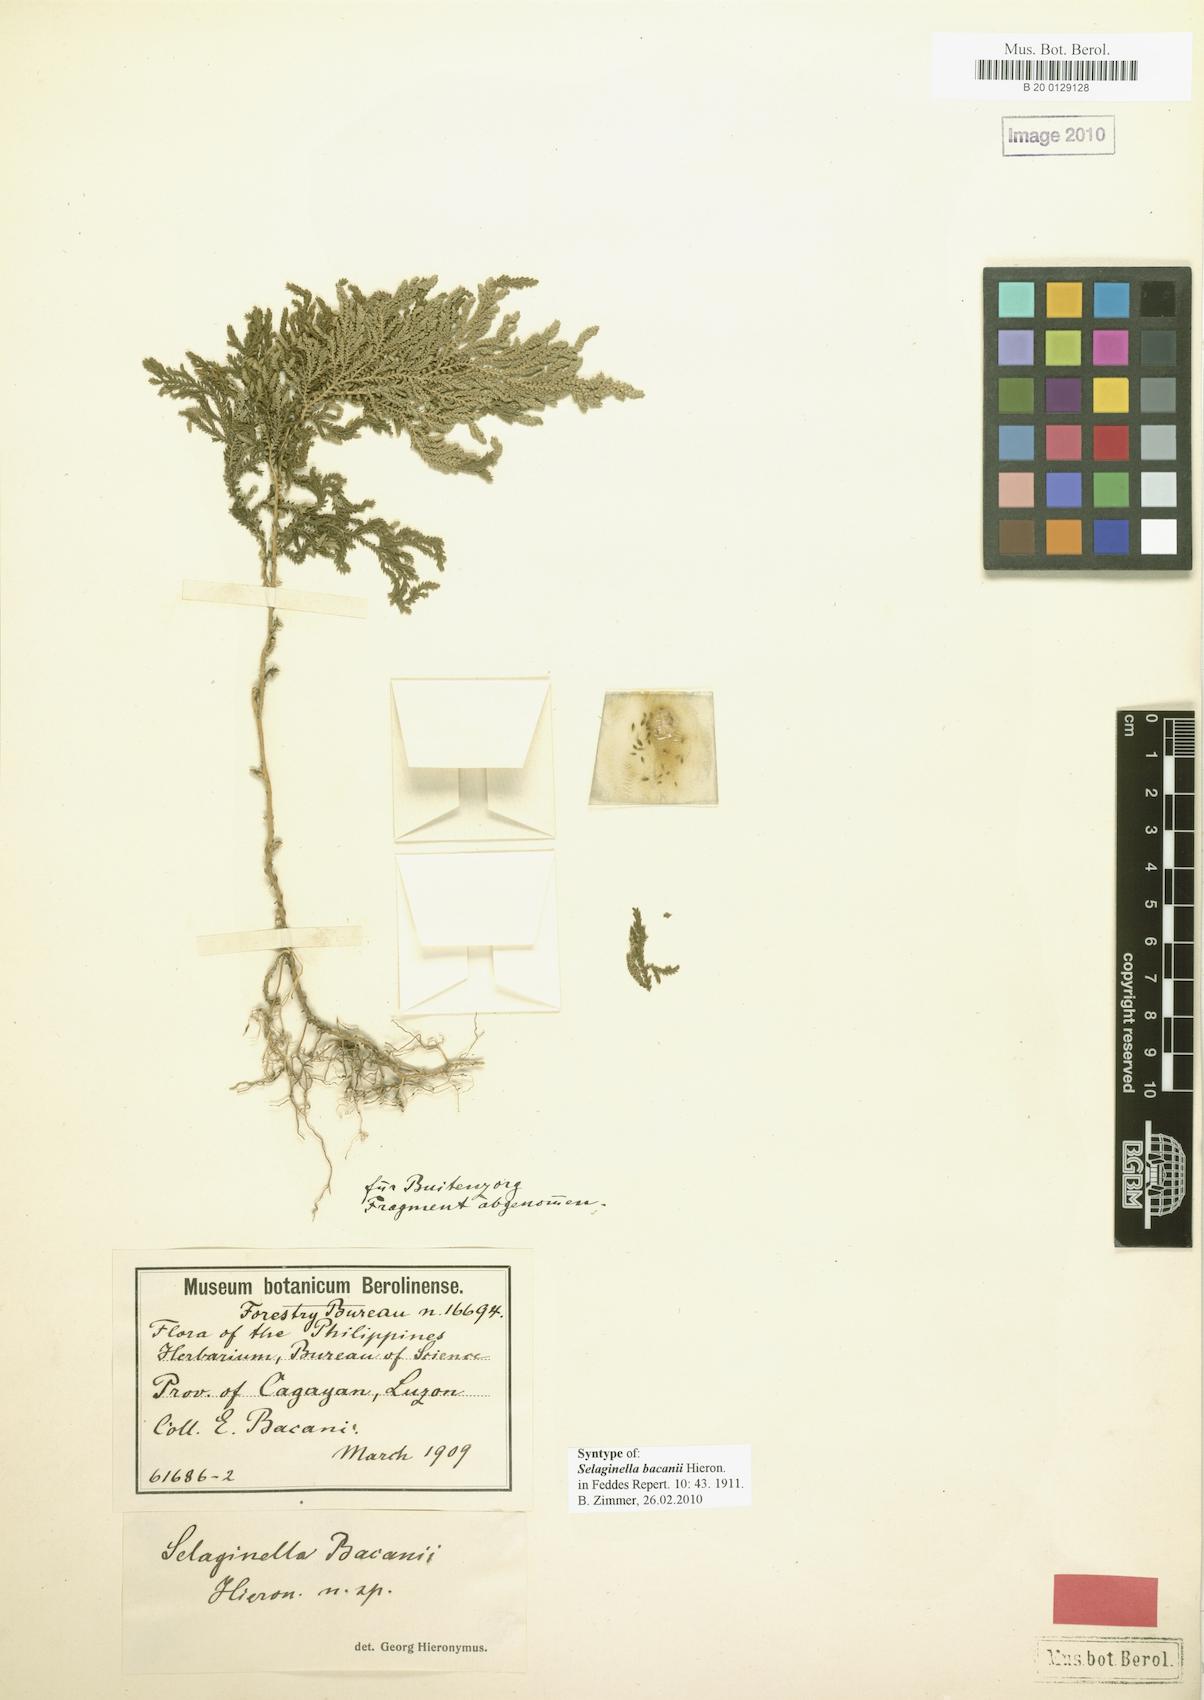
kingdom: Plantae
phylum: Tracheophyta
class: Lycopodiopsida
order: Selaginellales
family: Selaginellaceae
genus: Selaginella
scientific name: Selaginella aenea
